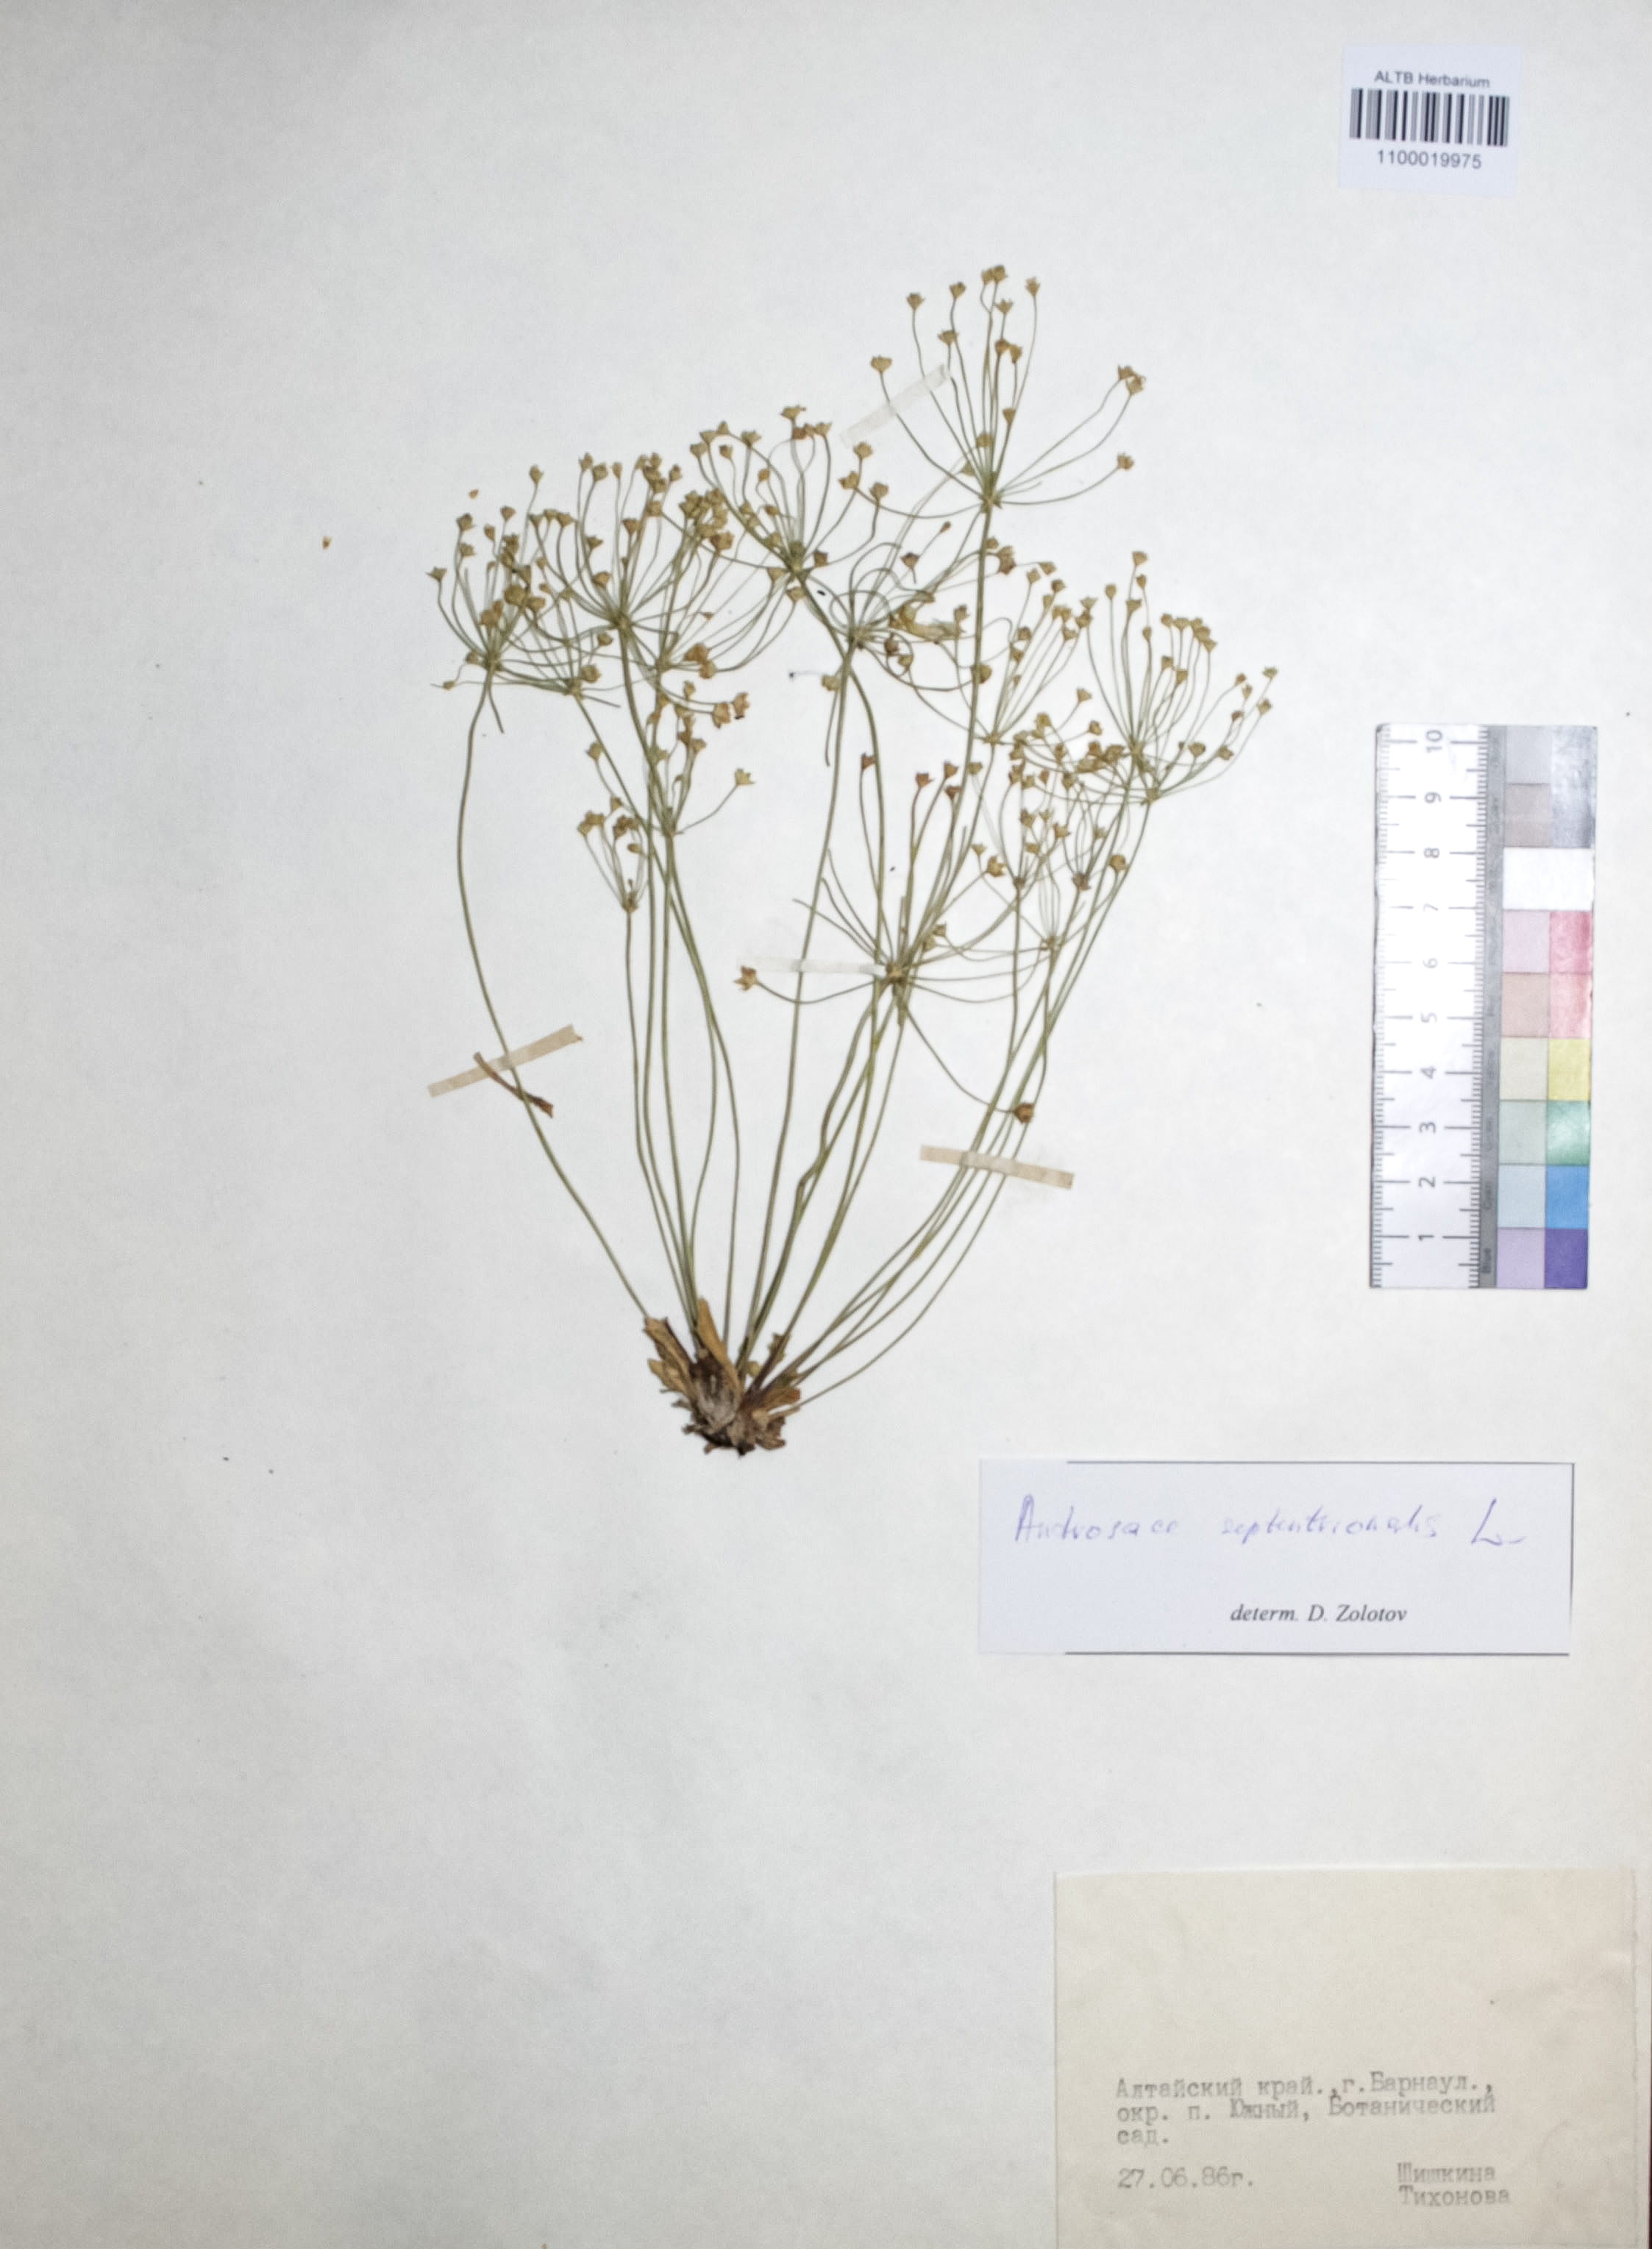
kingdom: Plantae
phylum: Tracheophyta
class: Magnoliopsida
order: Ericales
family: Primulaceae
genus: Androsace
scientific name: Androsace septentrionalis
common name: Hairy northern fairy-candelabra
